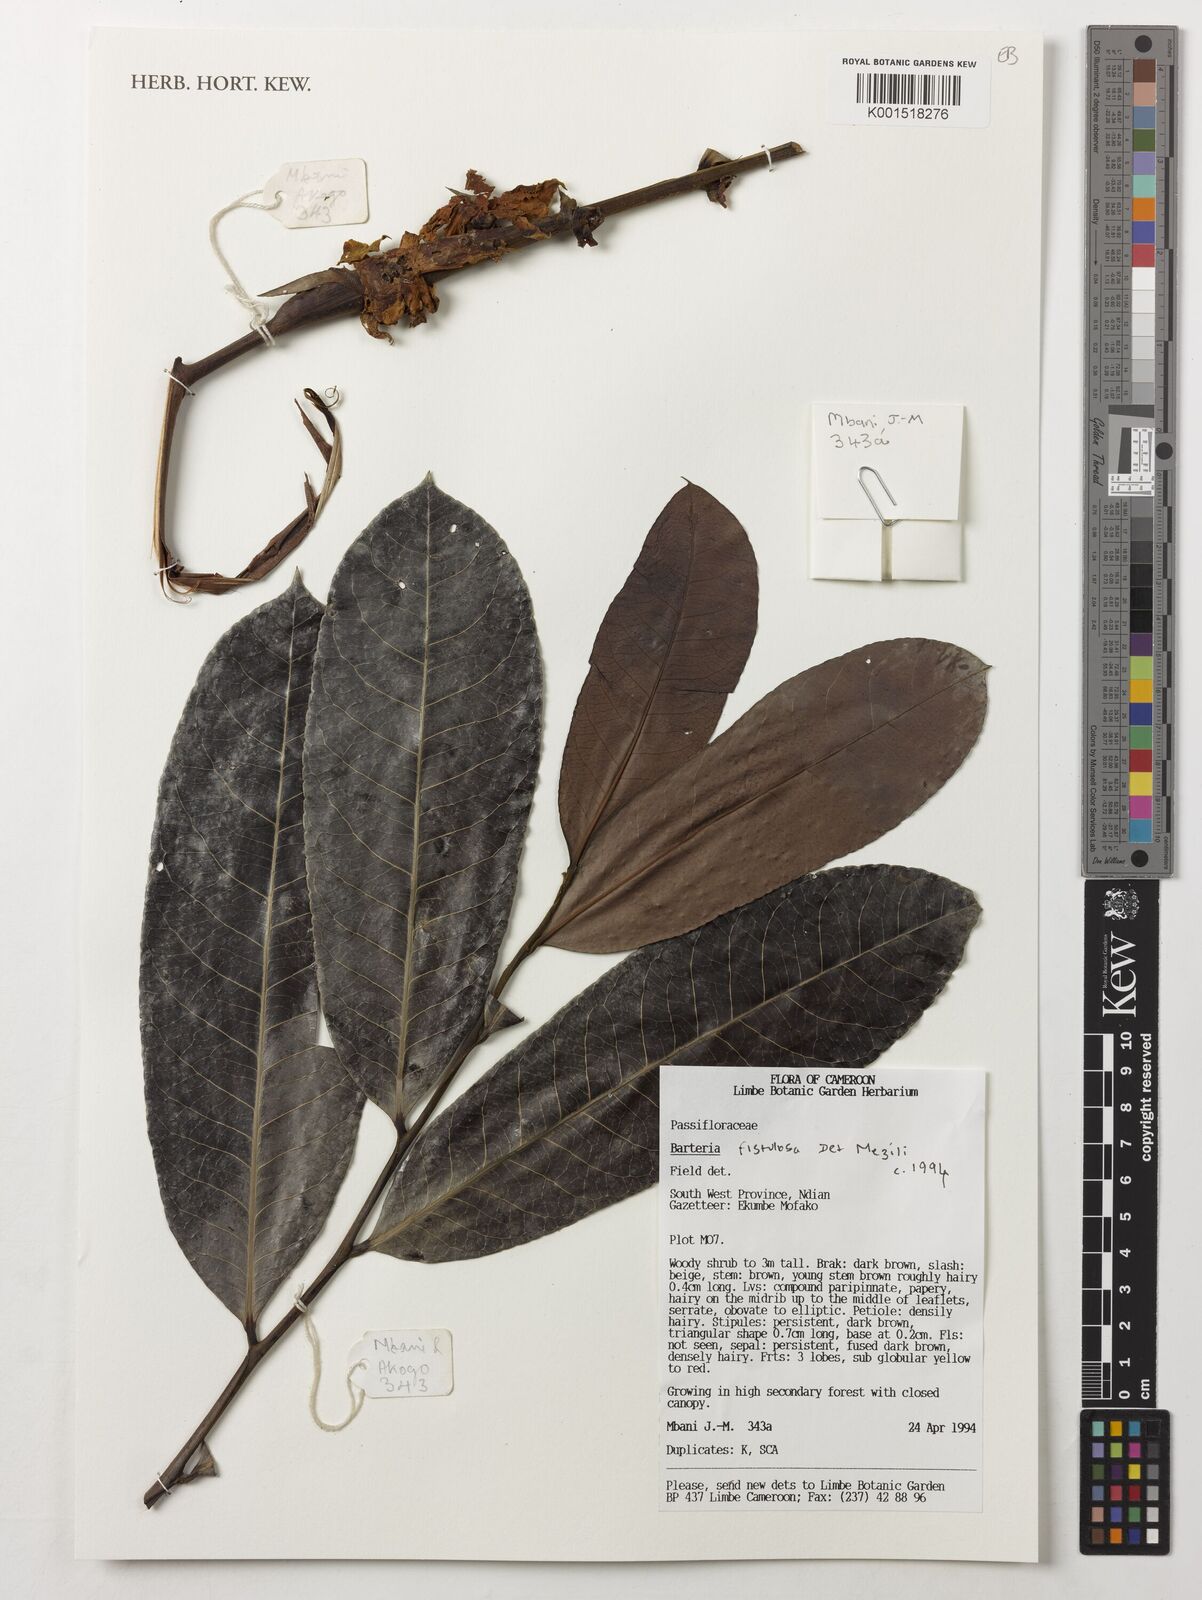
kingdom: Plantae
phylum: Tracheophyta
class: Magnoliopsida
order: Malpighiales
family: Passifloraceae
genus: Barteria
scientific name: Barteria fistulosa
